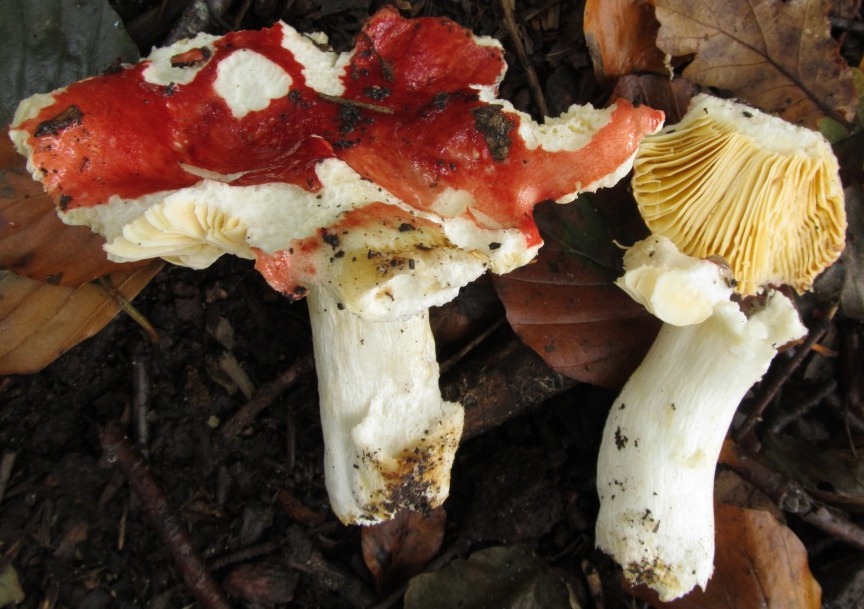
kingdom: Fungi
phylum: Basidiomycota
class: Agaricomycetes
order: Russulales
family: Russulaceae
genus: Russula
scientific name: Russula rutila
